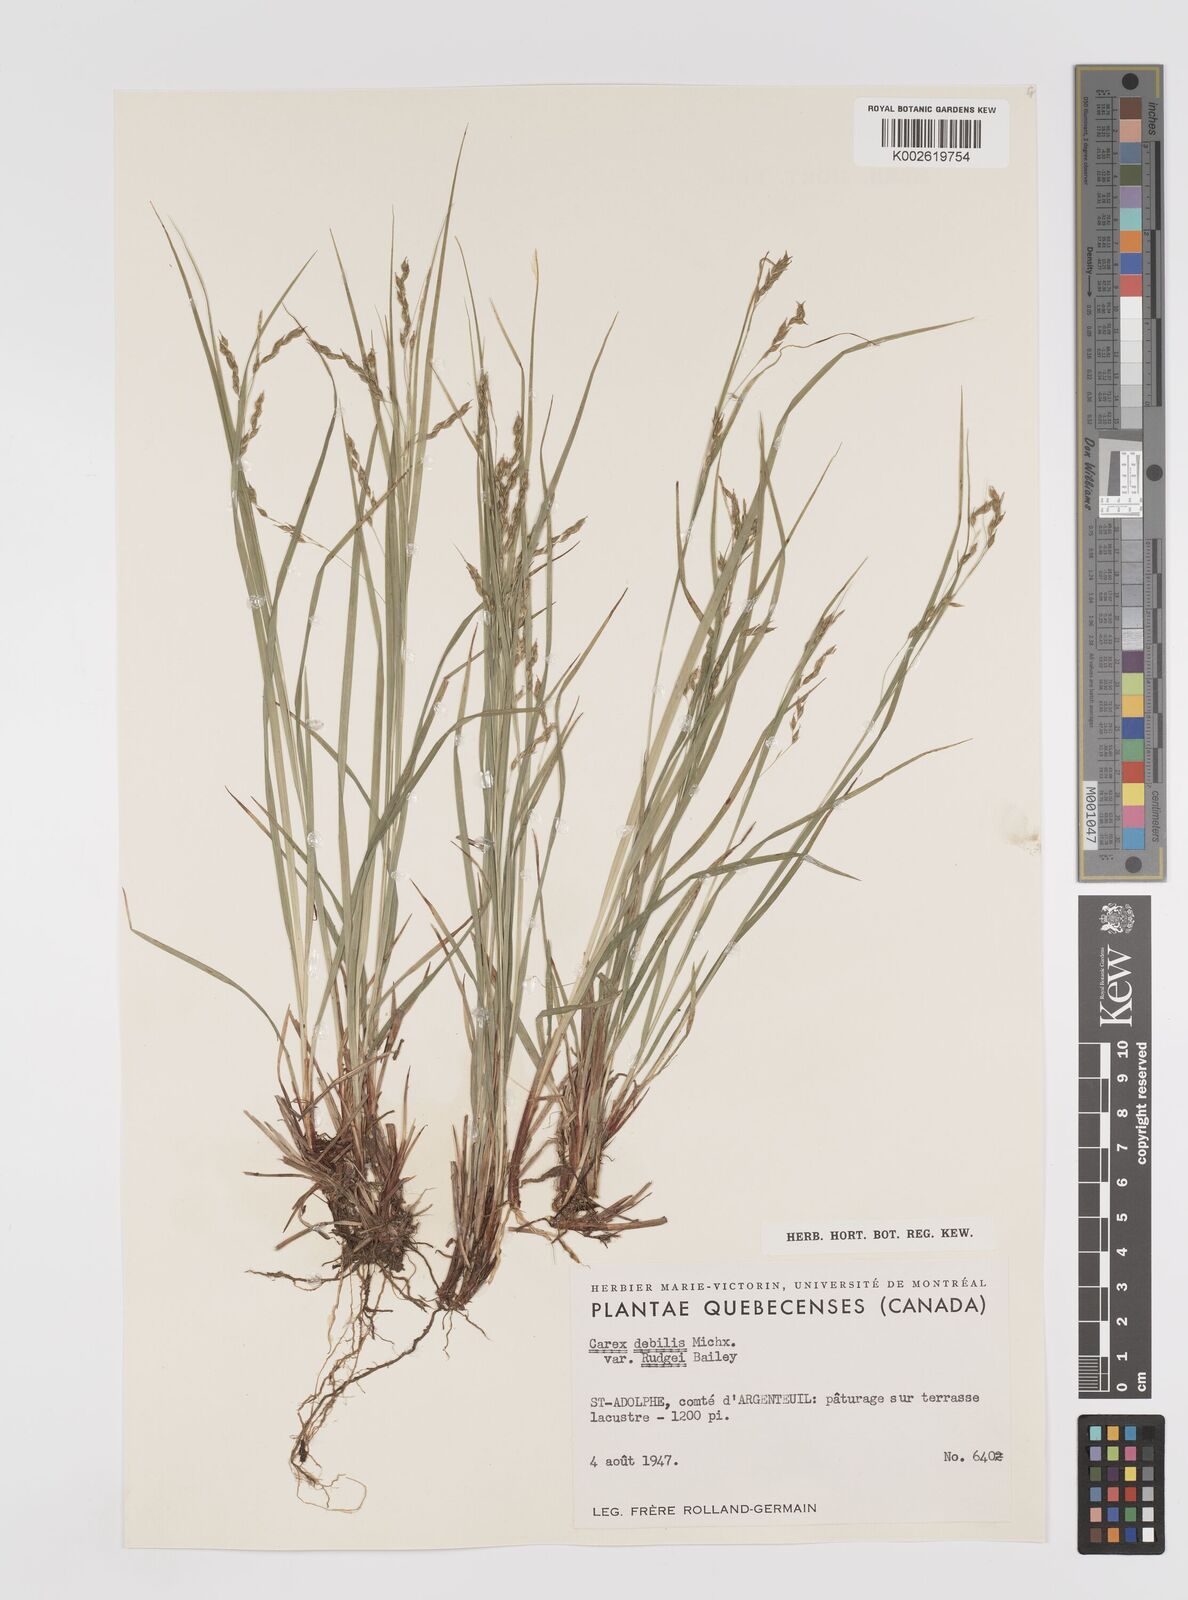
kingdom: Plantae
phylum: Tracheophyta
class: Liliopsida
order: Poales
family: Cyperaceae
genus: Carex
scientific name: Carex debilis
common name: White-edge sedge
